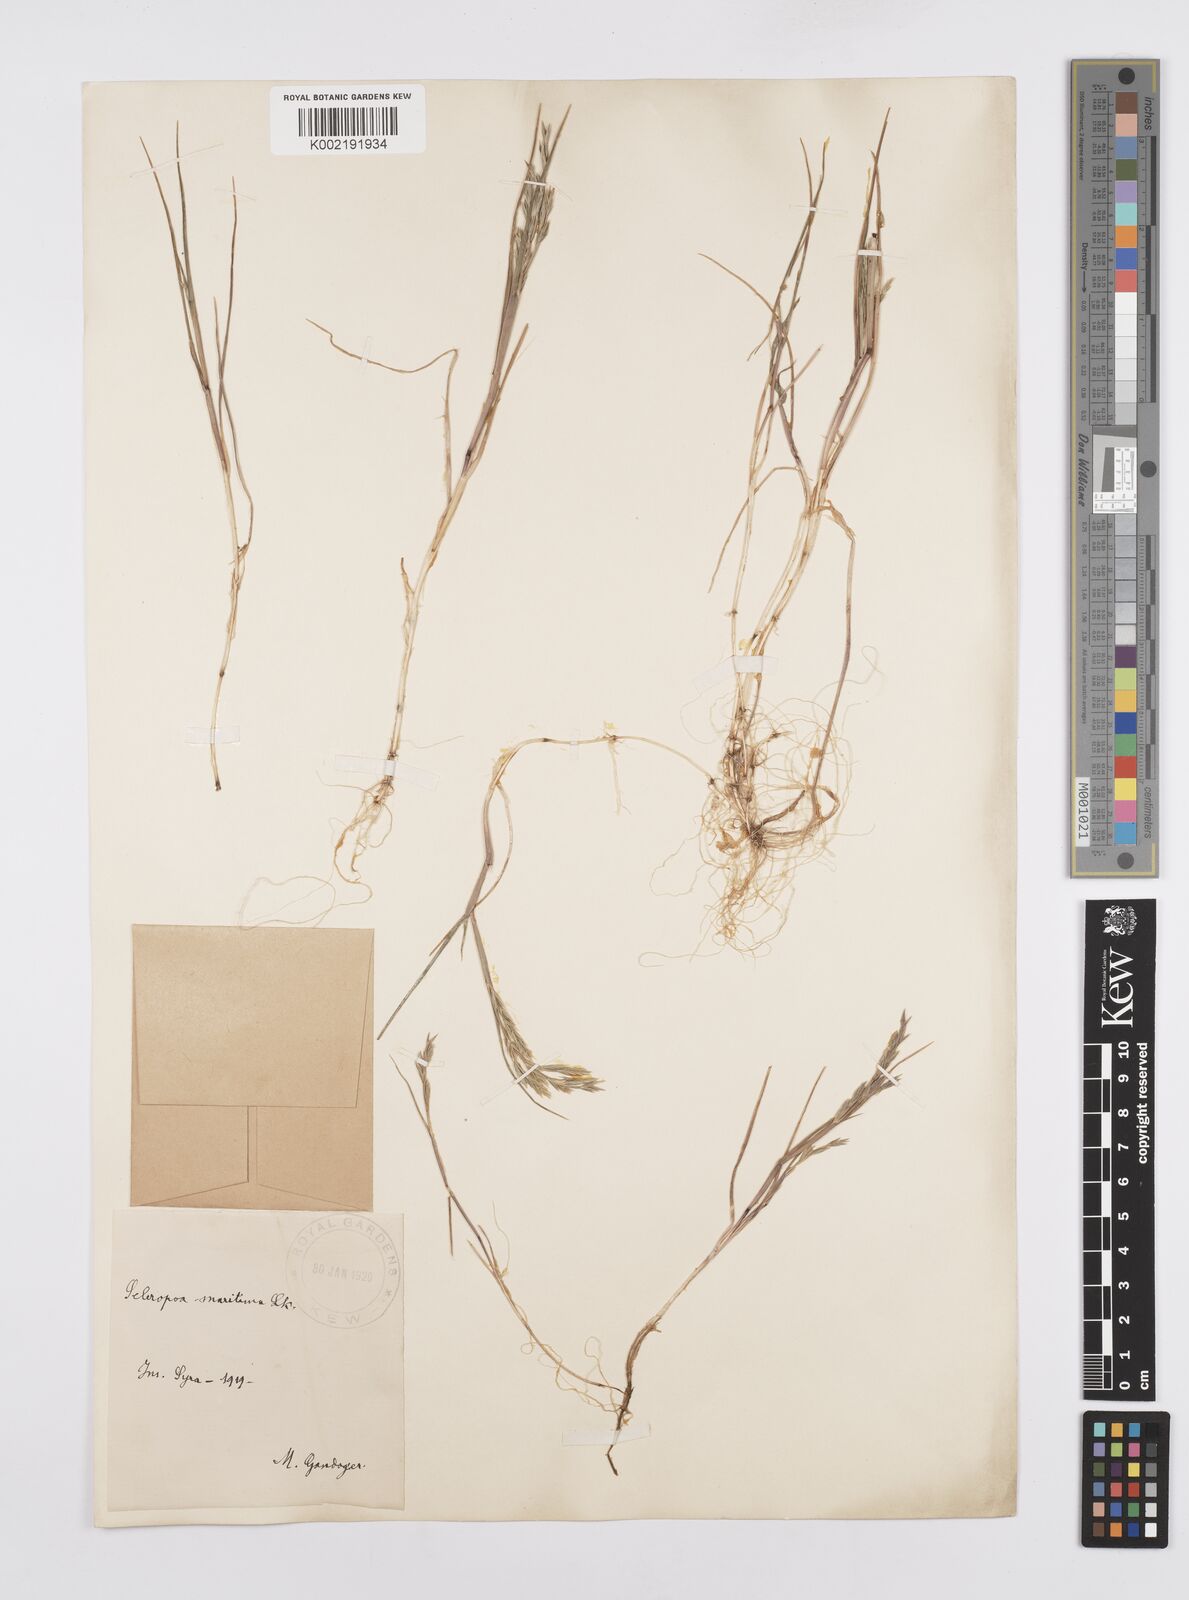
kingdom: Plantae
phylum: Tracheophyta
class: Liliopsida
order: Poales
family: Poaceae
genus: Cutandia
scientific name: Cutandia maritima
